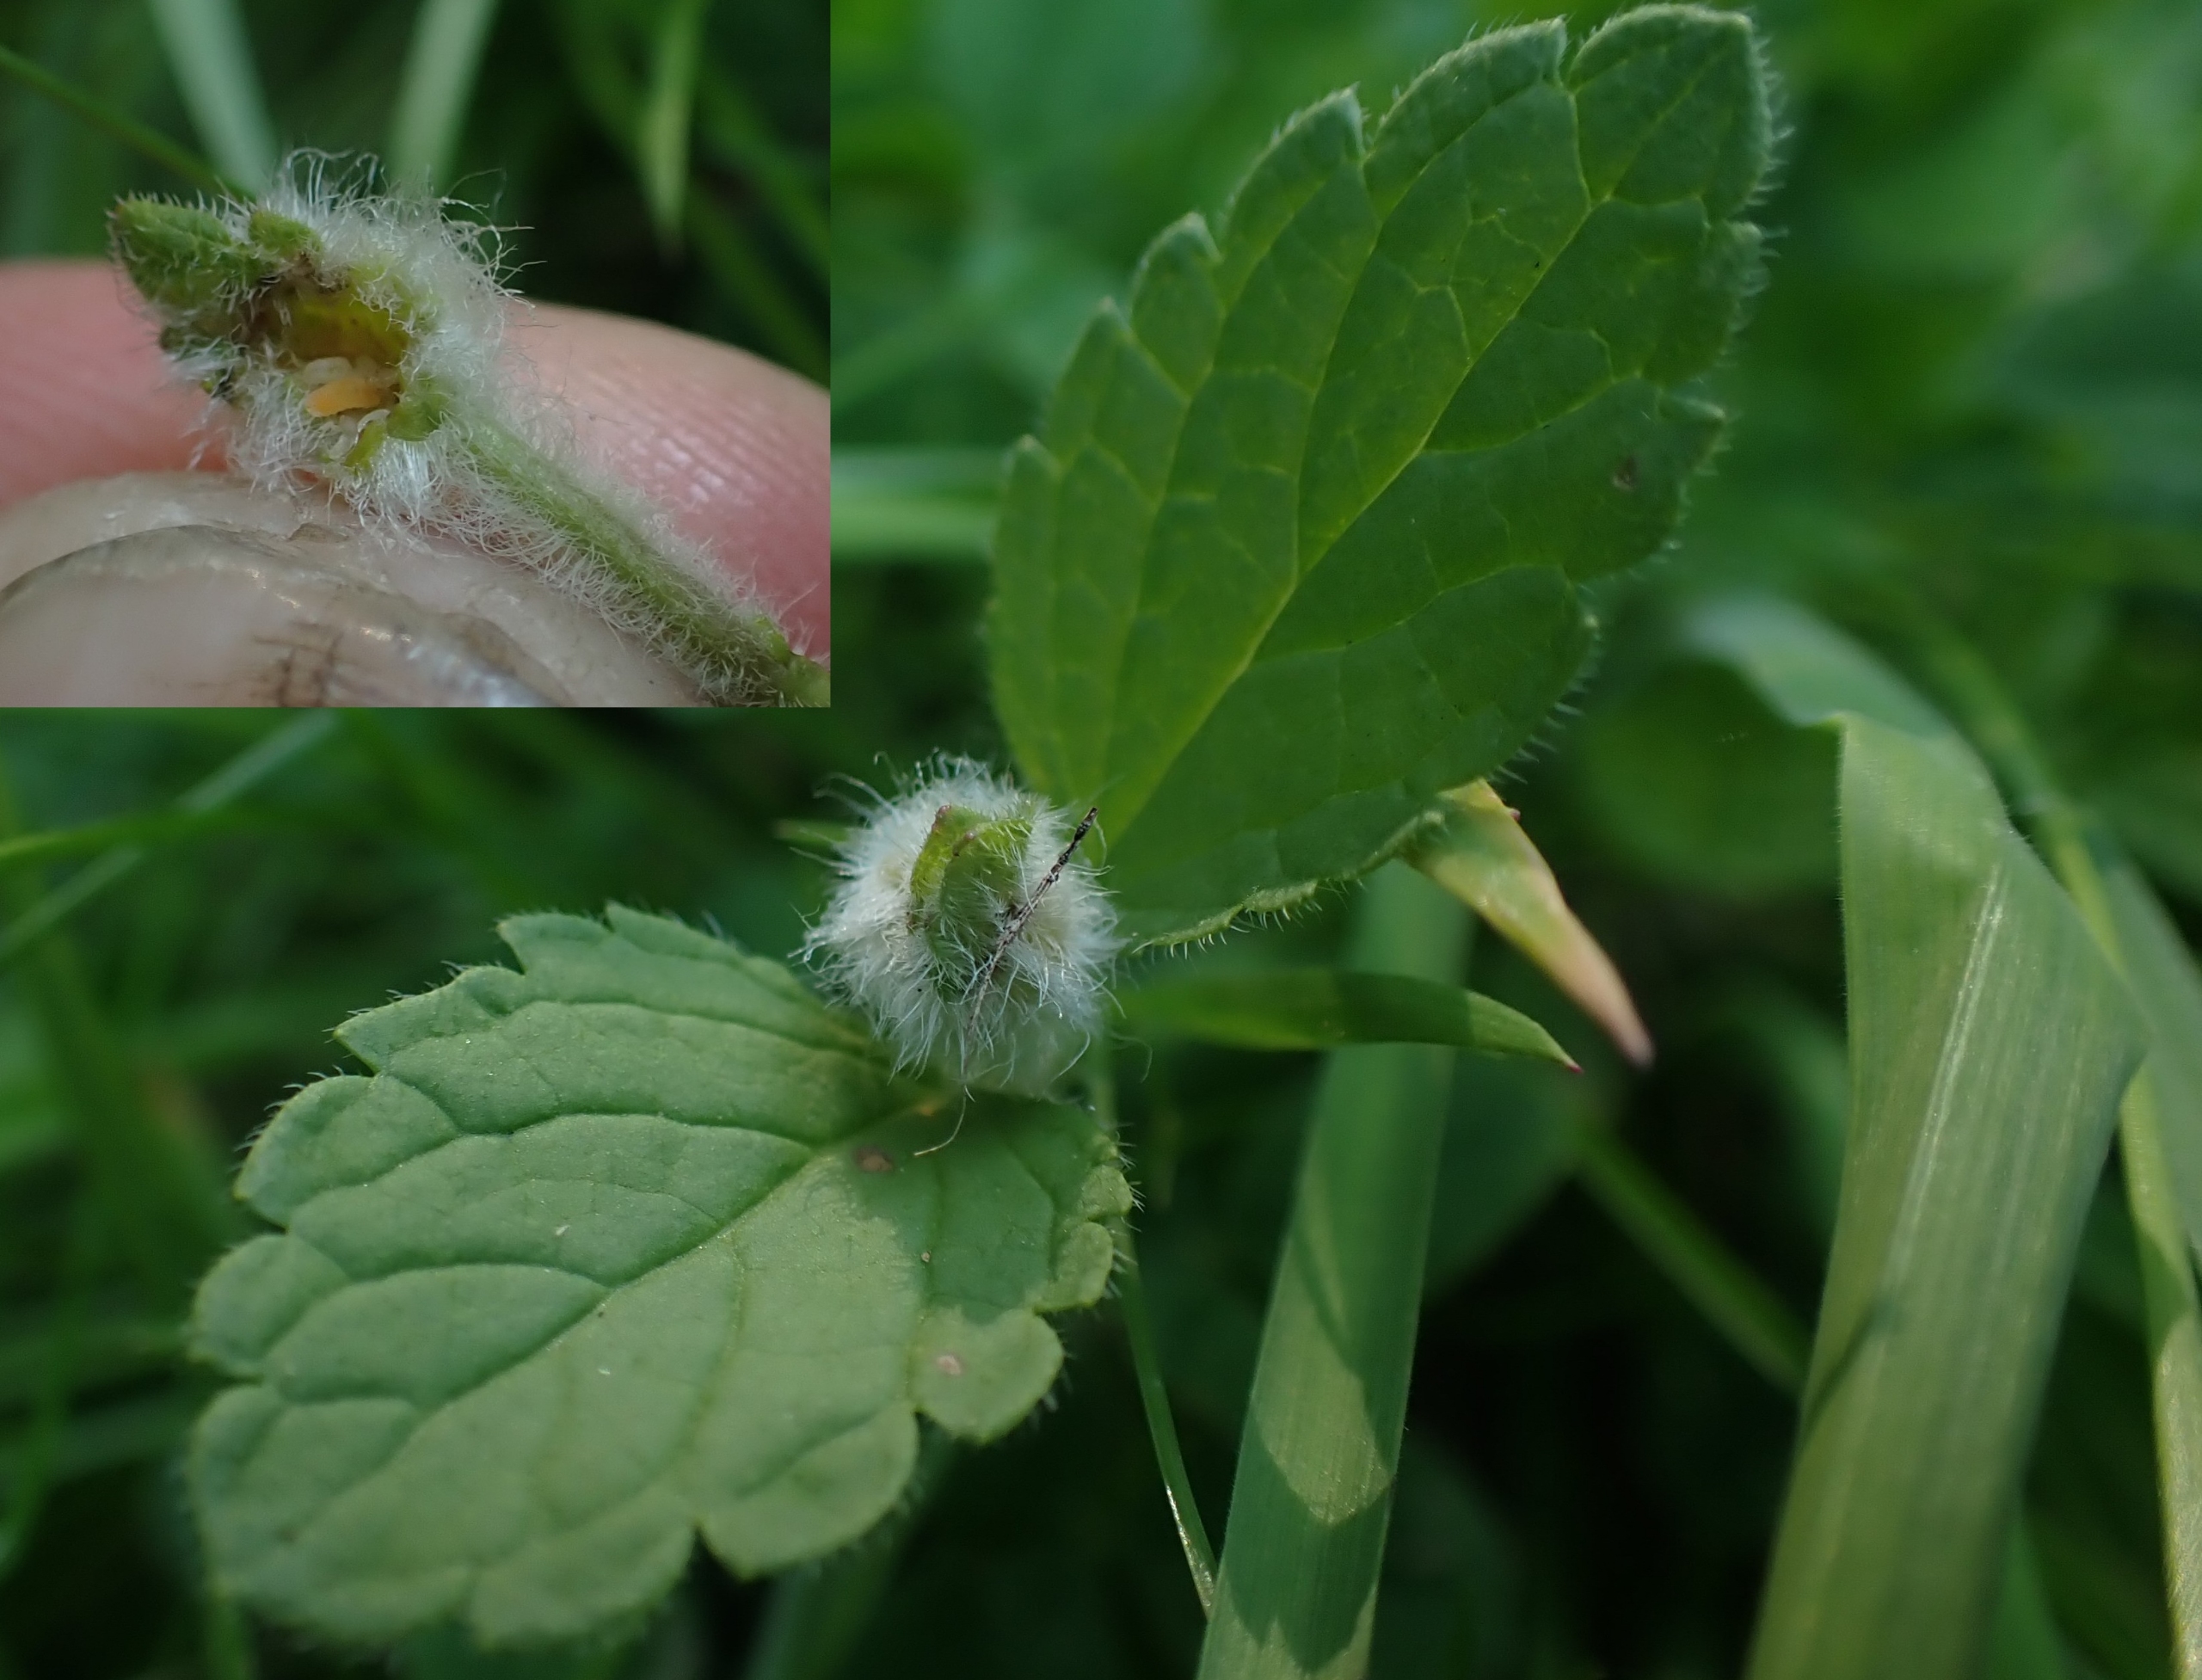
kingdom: Animalia
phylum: Arthropoda
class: Insecta
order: Diptera
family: Cecidomyiidae
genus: Jaapiella
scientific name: Jaapiella veronicae
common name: Ærenprisgalmyg
